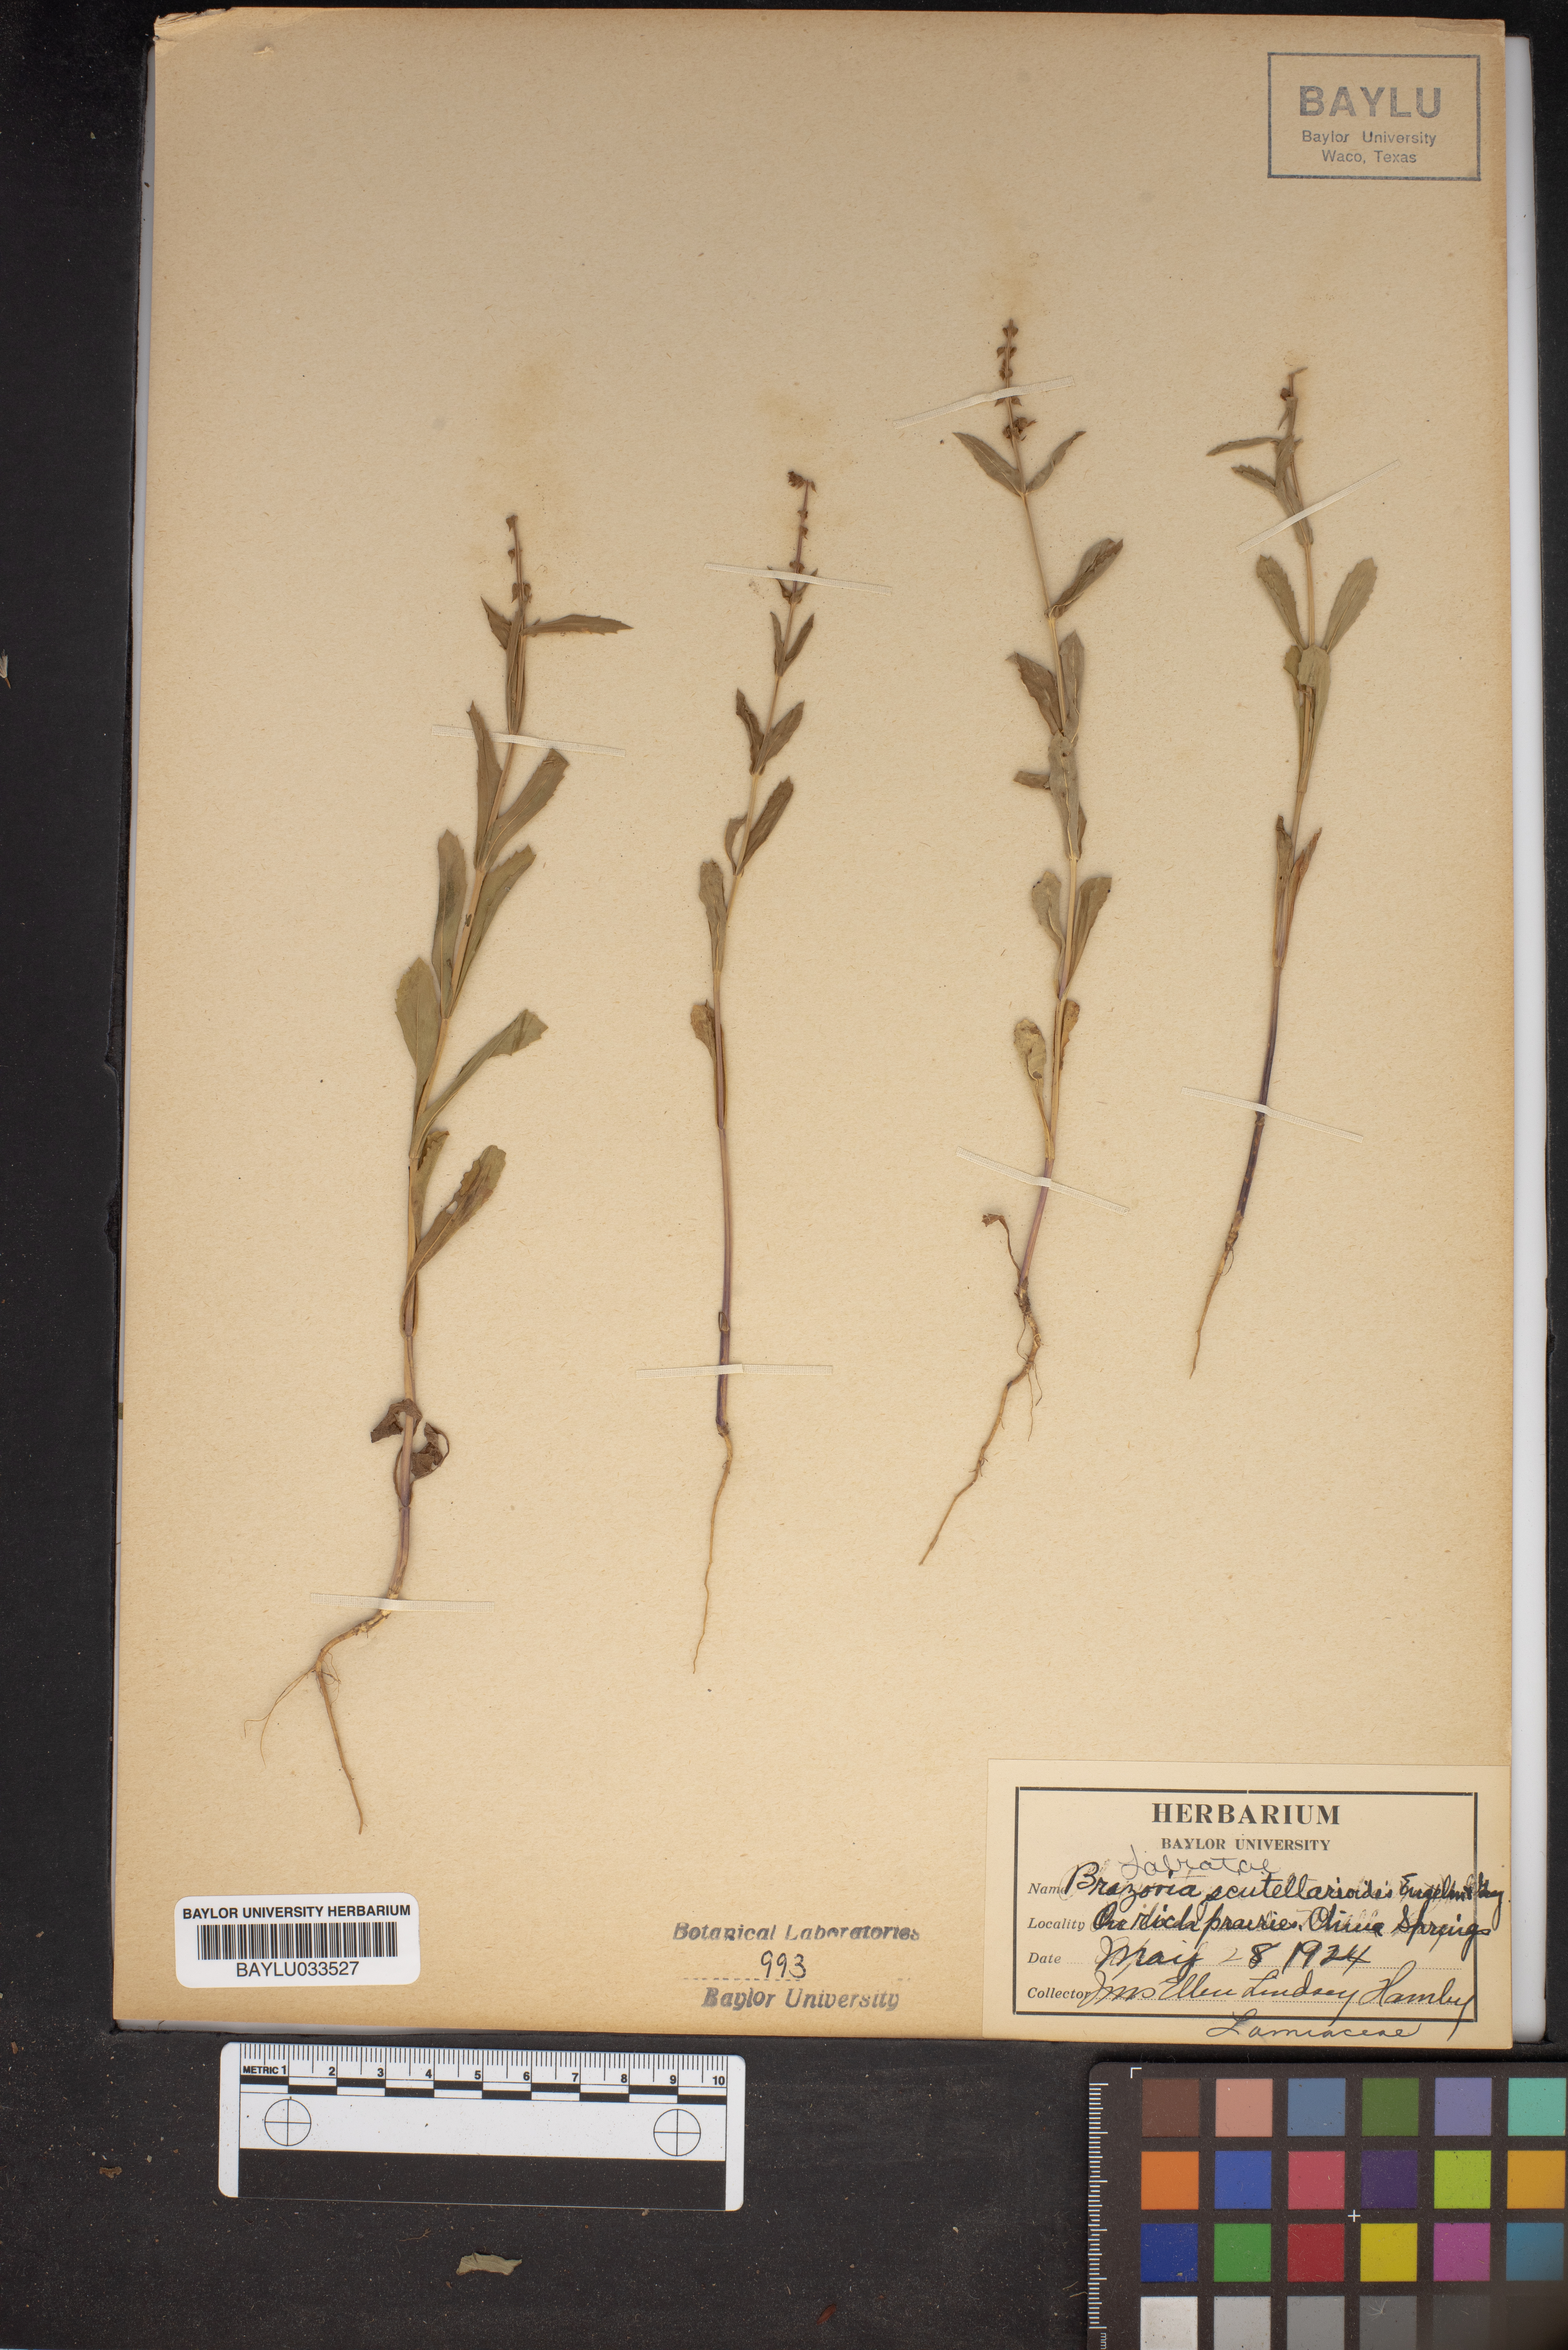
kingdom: Plantae
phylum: Tracheophyta
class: Magnoliopsida
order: Lamiales
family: Lamiaceae
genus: Warnockia
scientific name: Warnockia scutellarioides
